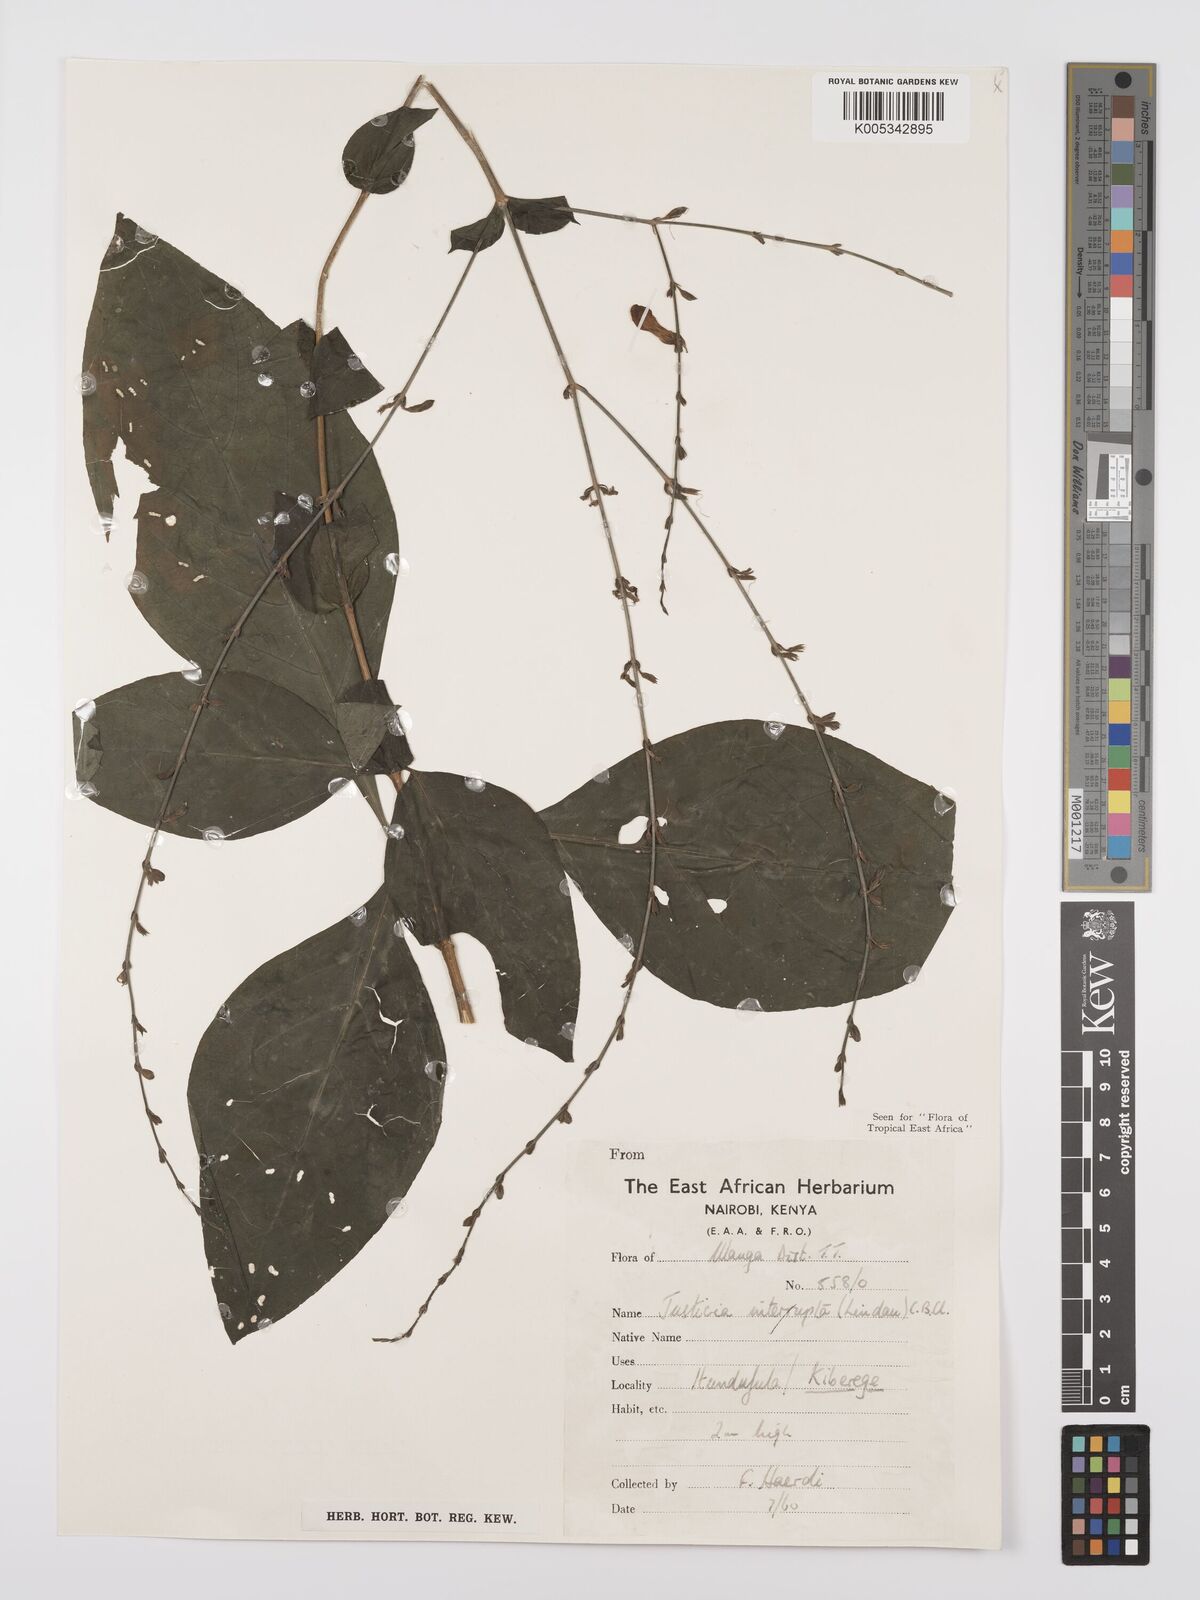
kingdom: Plantae
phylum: Tracheophyta
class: Magnoliopsida
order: Lamiales
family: Acanthaceae
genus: Justicia
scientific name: Justicia plectranthoides
